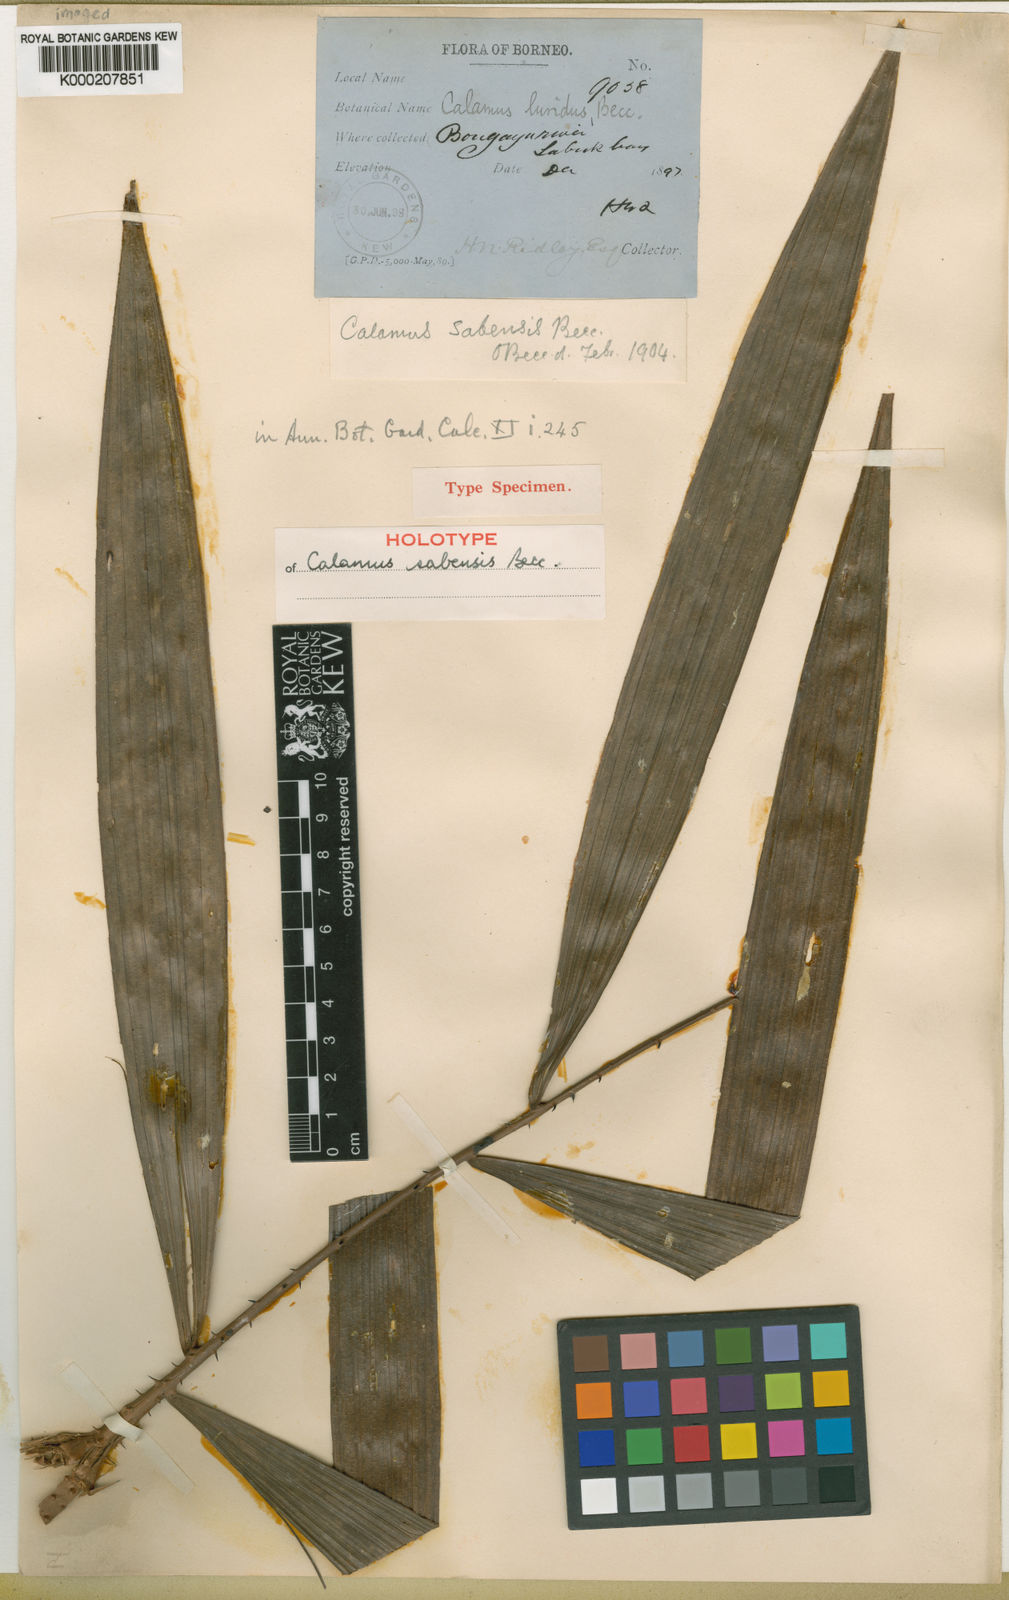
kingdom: Plantae
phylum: Tracheophyta
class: Liliopsida
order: Arecales
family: Arecaceae
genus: Calamus
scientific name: Calamus longipes
